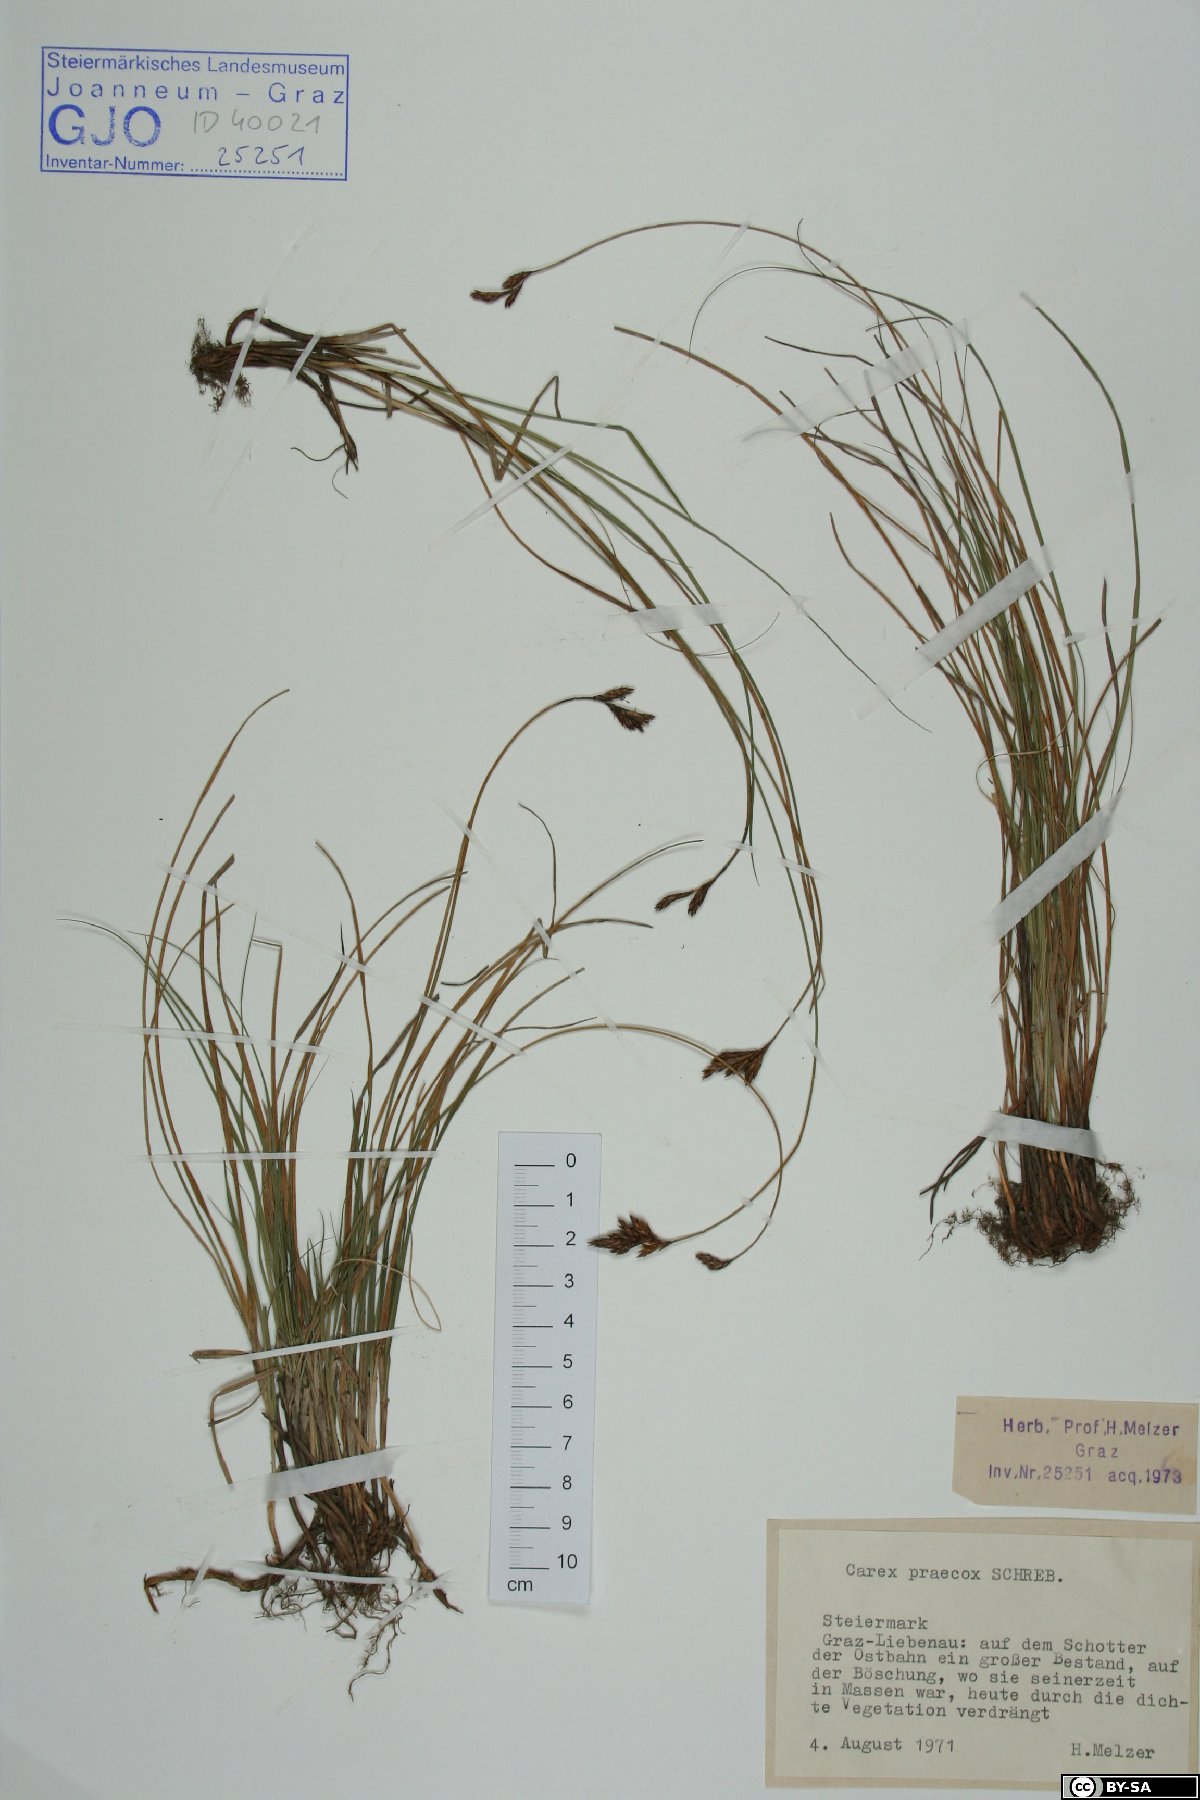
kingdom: Plantae
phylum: Tracheophyta
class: Liliopsida
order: Poales
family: Cyperaceae
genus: Carex
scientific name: Carex praecox
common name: Early sedge
